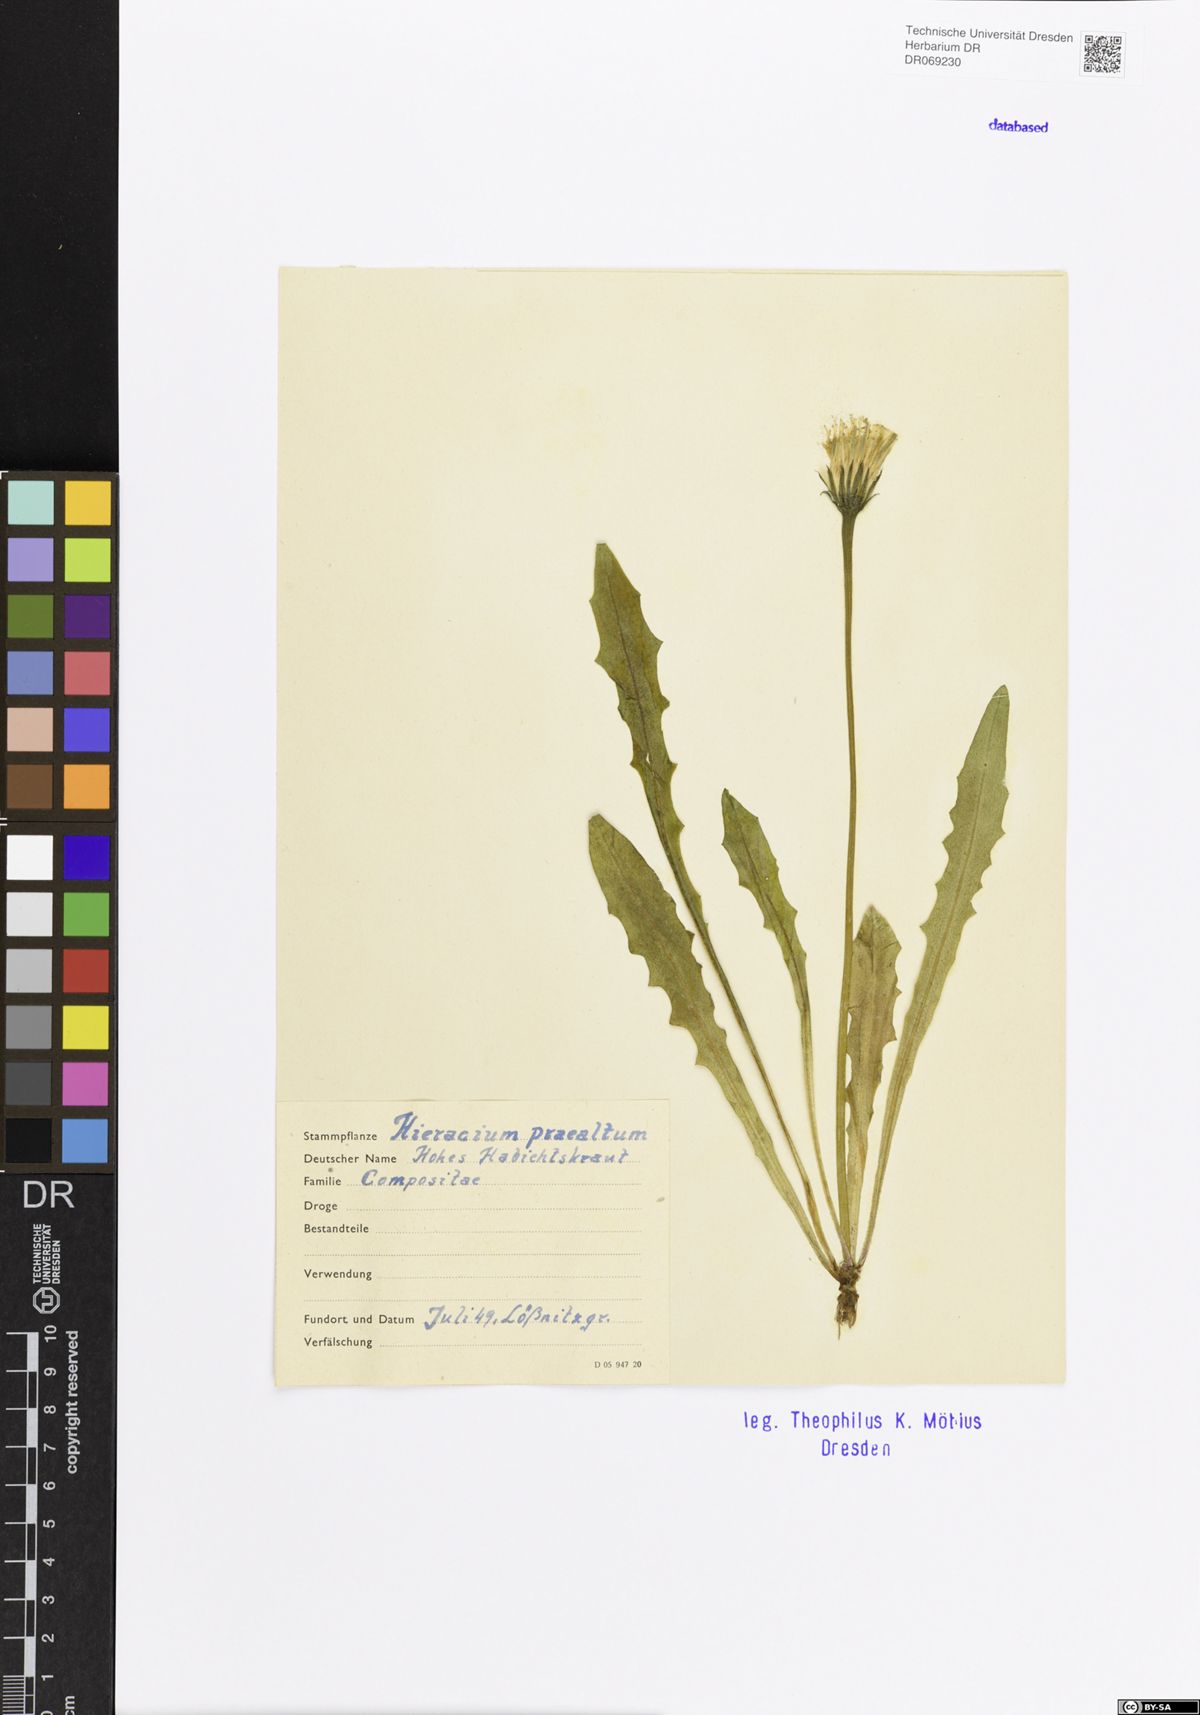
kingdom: Plantae
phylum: Tracheophyta
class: Magnoliopsida
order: Asterales
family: Asteraceae
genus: Pilosella
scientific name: Pilosella piloselloides
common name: Glaucous king-devil
